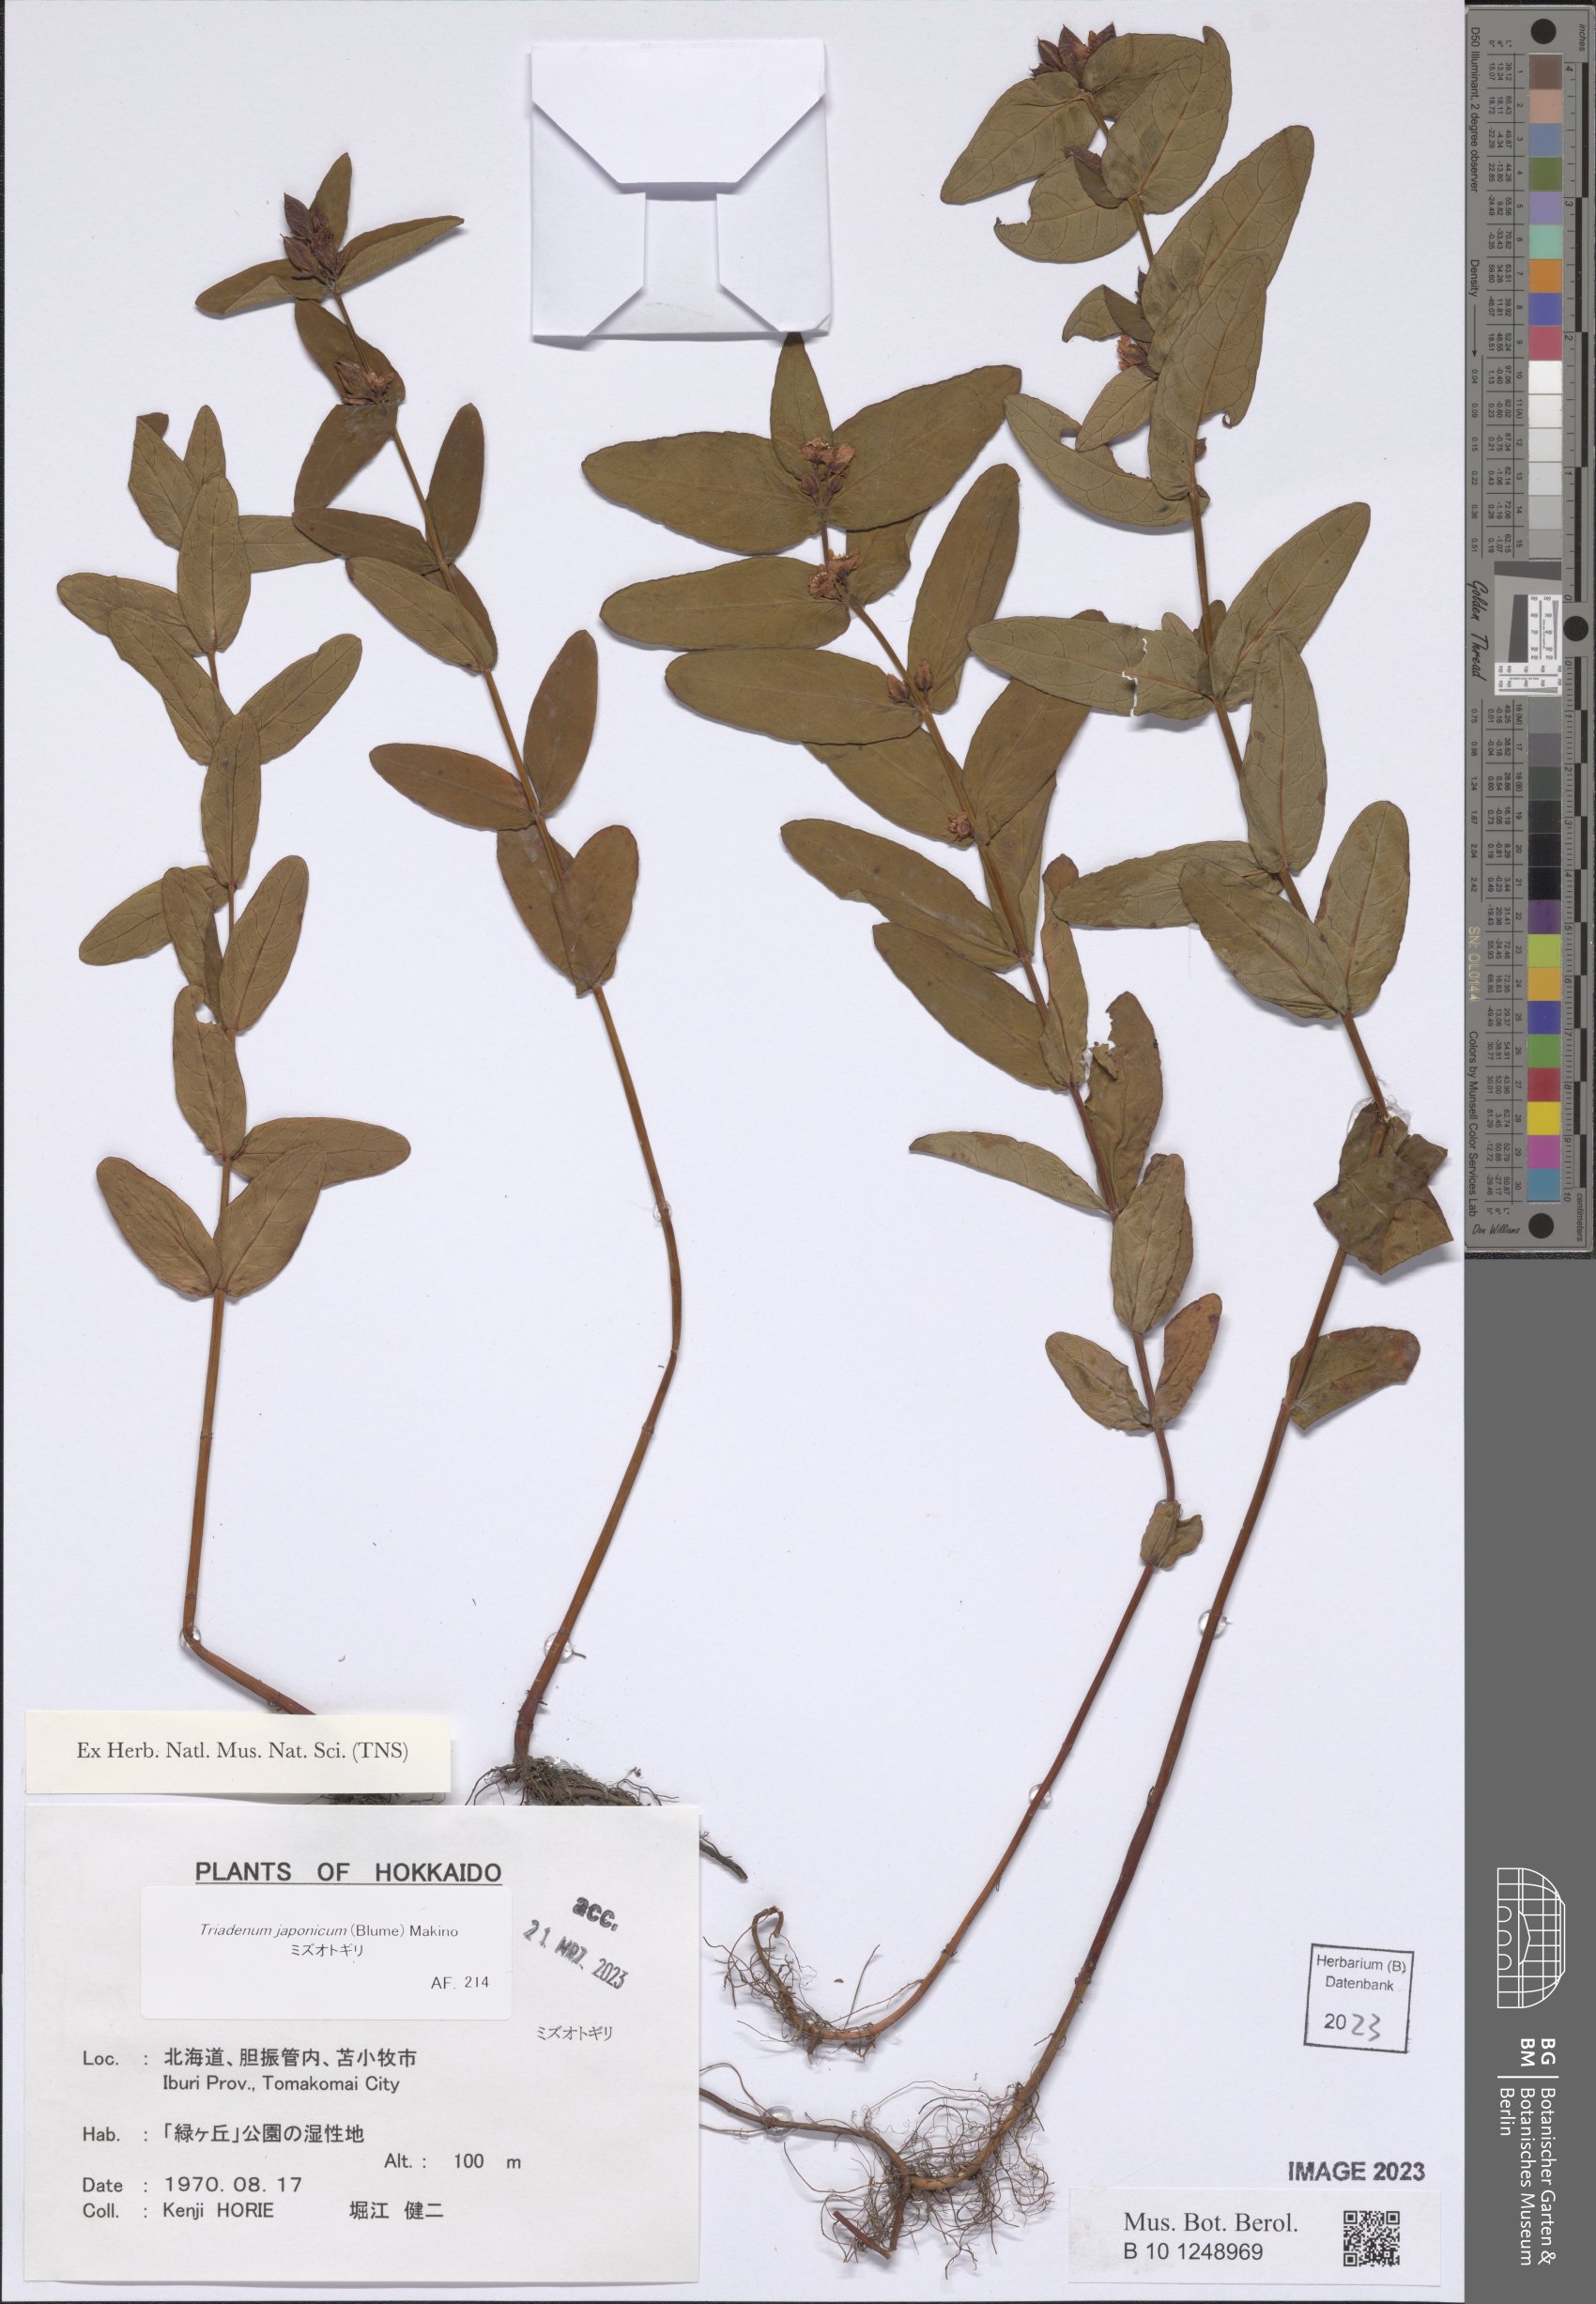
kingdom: Plantae
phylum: Tracheophyta
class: Magnoliopsida
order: Malpighiales
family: Hypericaceae
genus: Triadenum
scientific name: Triadenum japonicum
